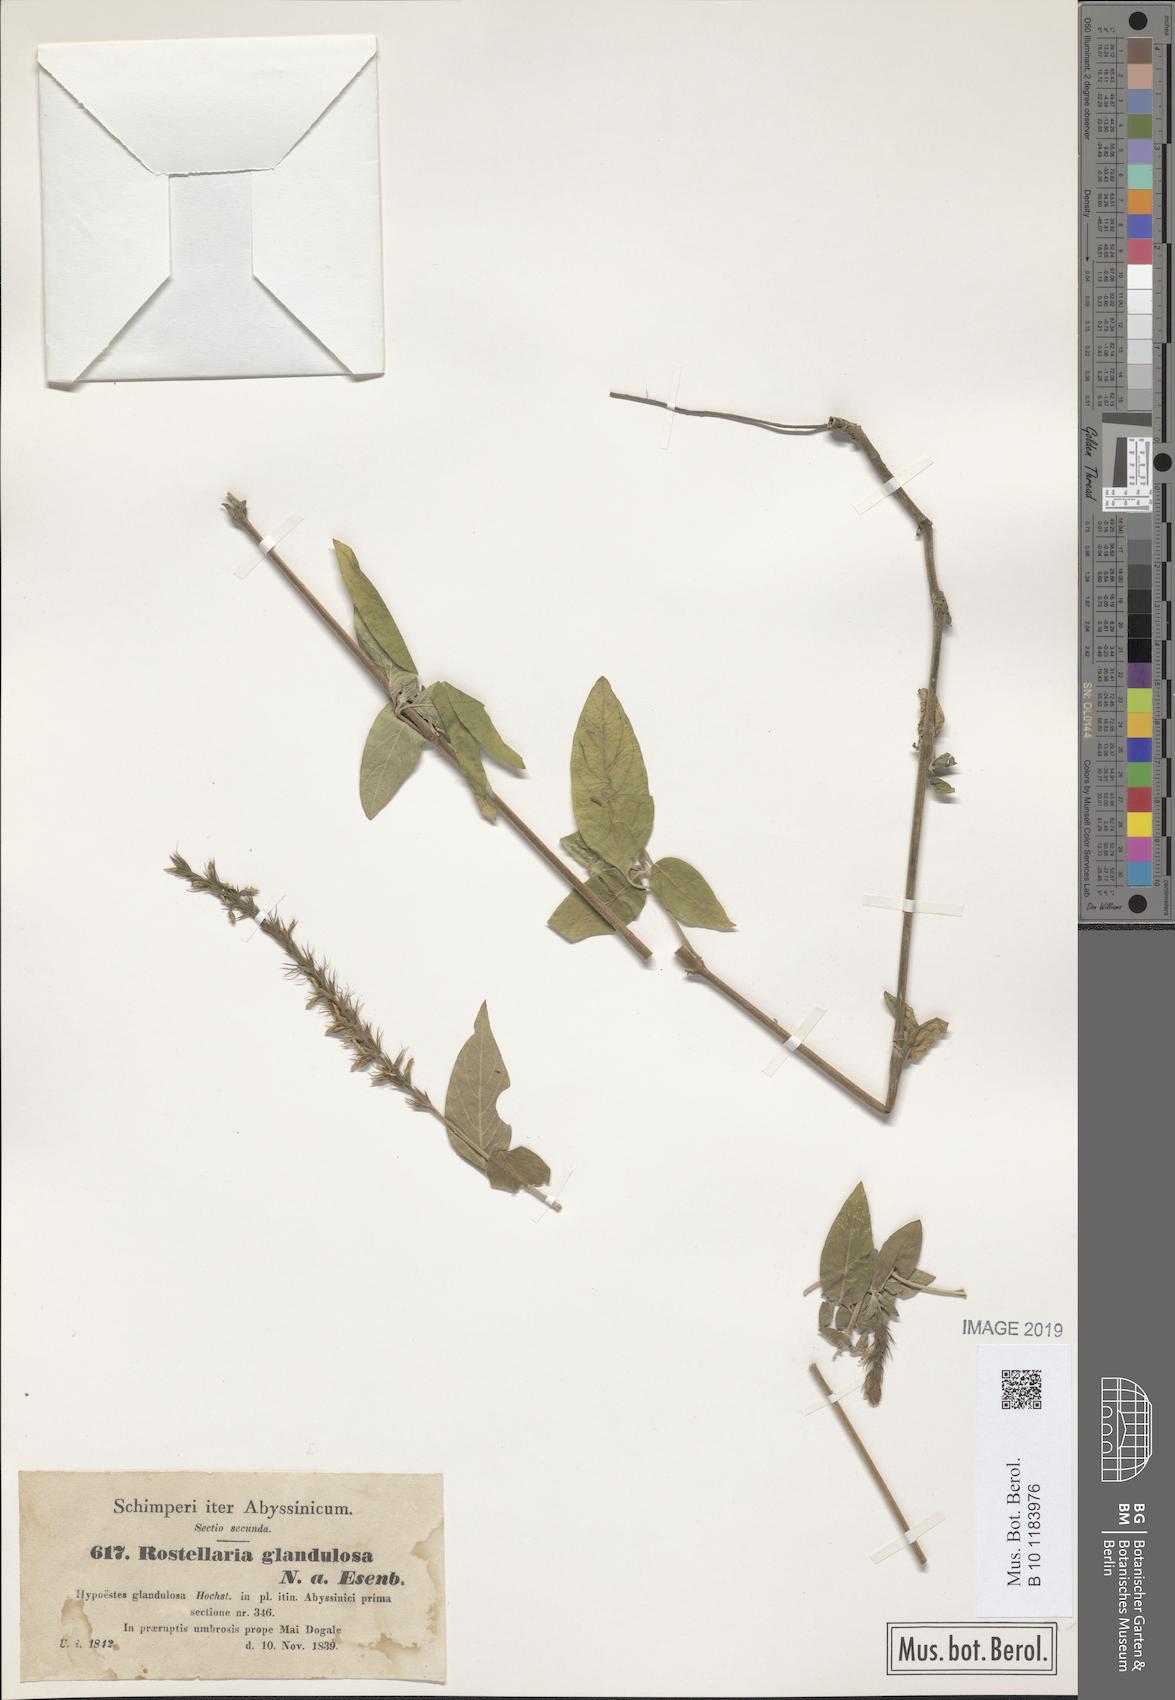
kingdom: Plantae
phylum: Tracheophyta
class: Magnoliopsida
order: Lamiales
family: Acanthaceae
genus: Monothecium
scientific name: Monothecium glandulosum
